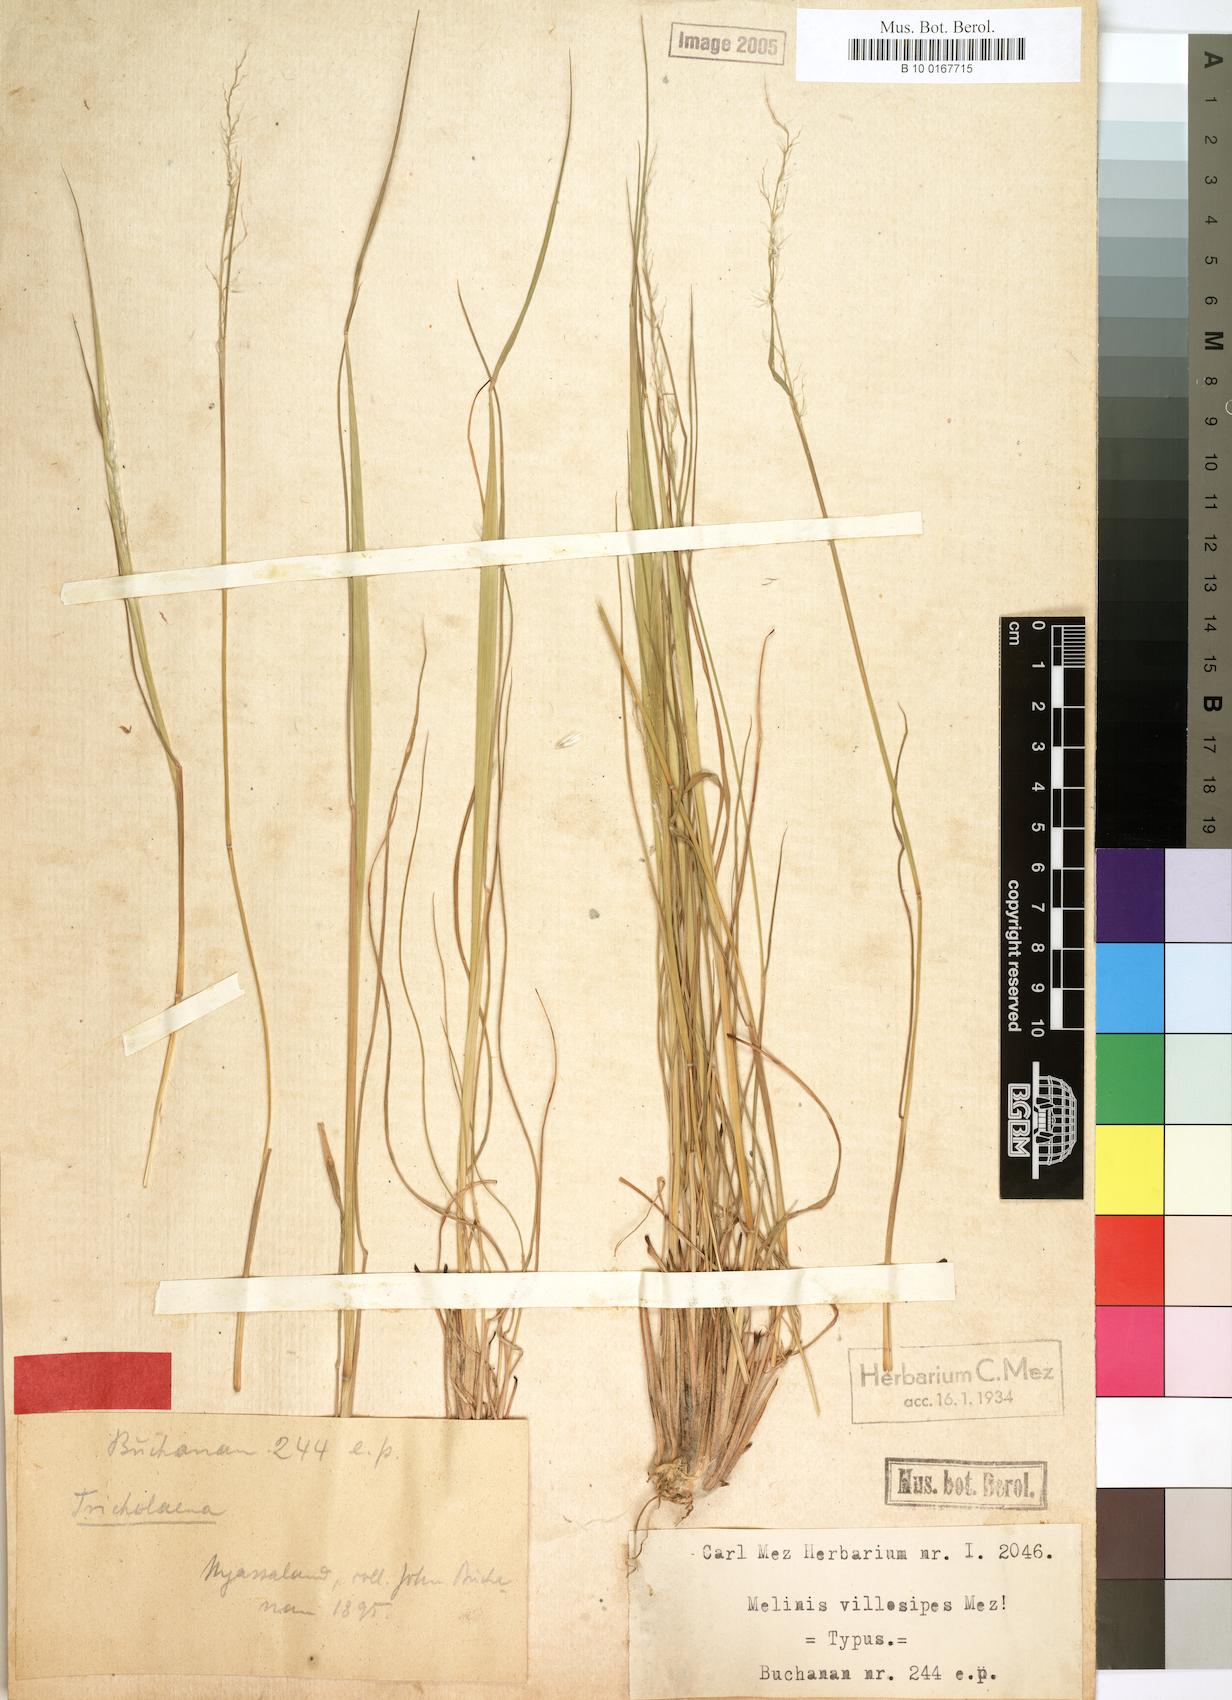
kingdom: Plantae
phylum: Tracheophyta
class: Liliopsida
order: Poales
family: Poaceae
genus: Melinis
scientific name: Melinis nerviglumis
